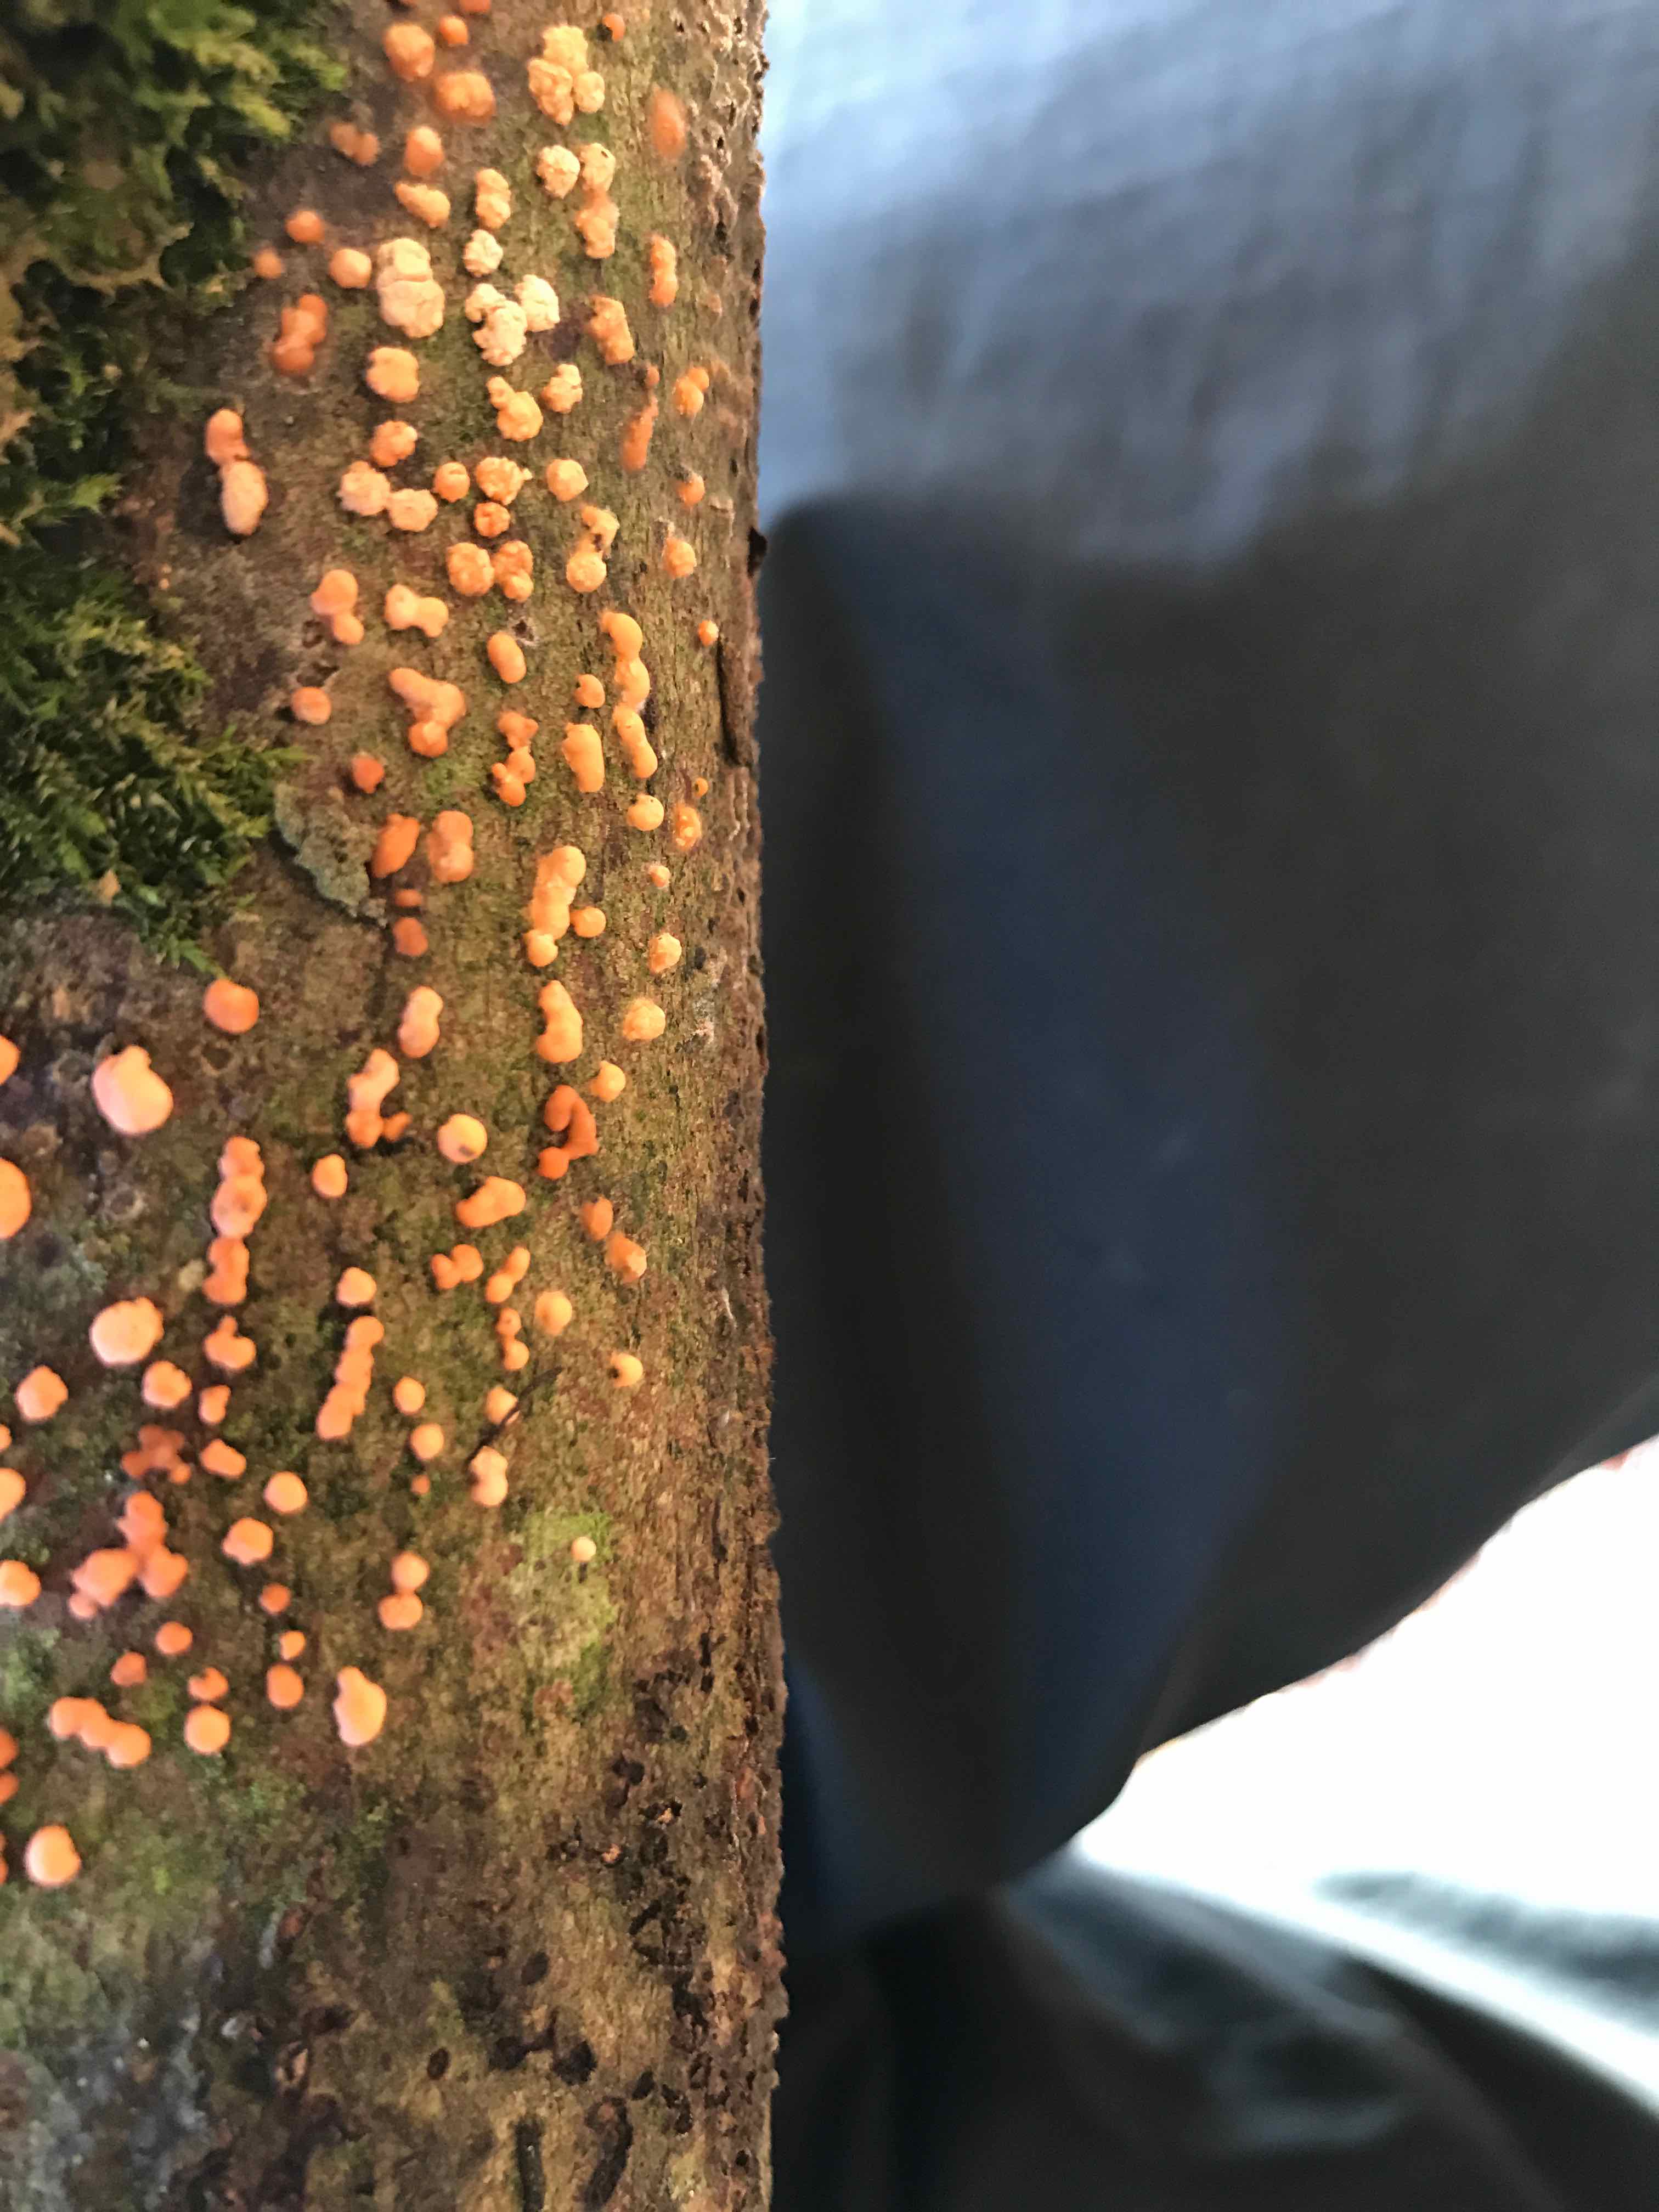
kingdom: Fungi
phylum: Ascomycota
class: Sordariomycetes
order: Hypocreales
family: Nectriaceae
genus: Nectria
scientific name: Nectria cinnabarina
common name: almindelig cinnobersvamp
